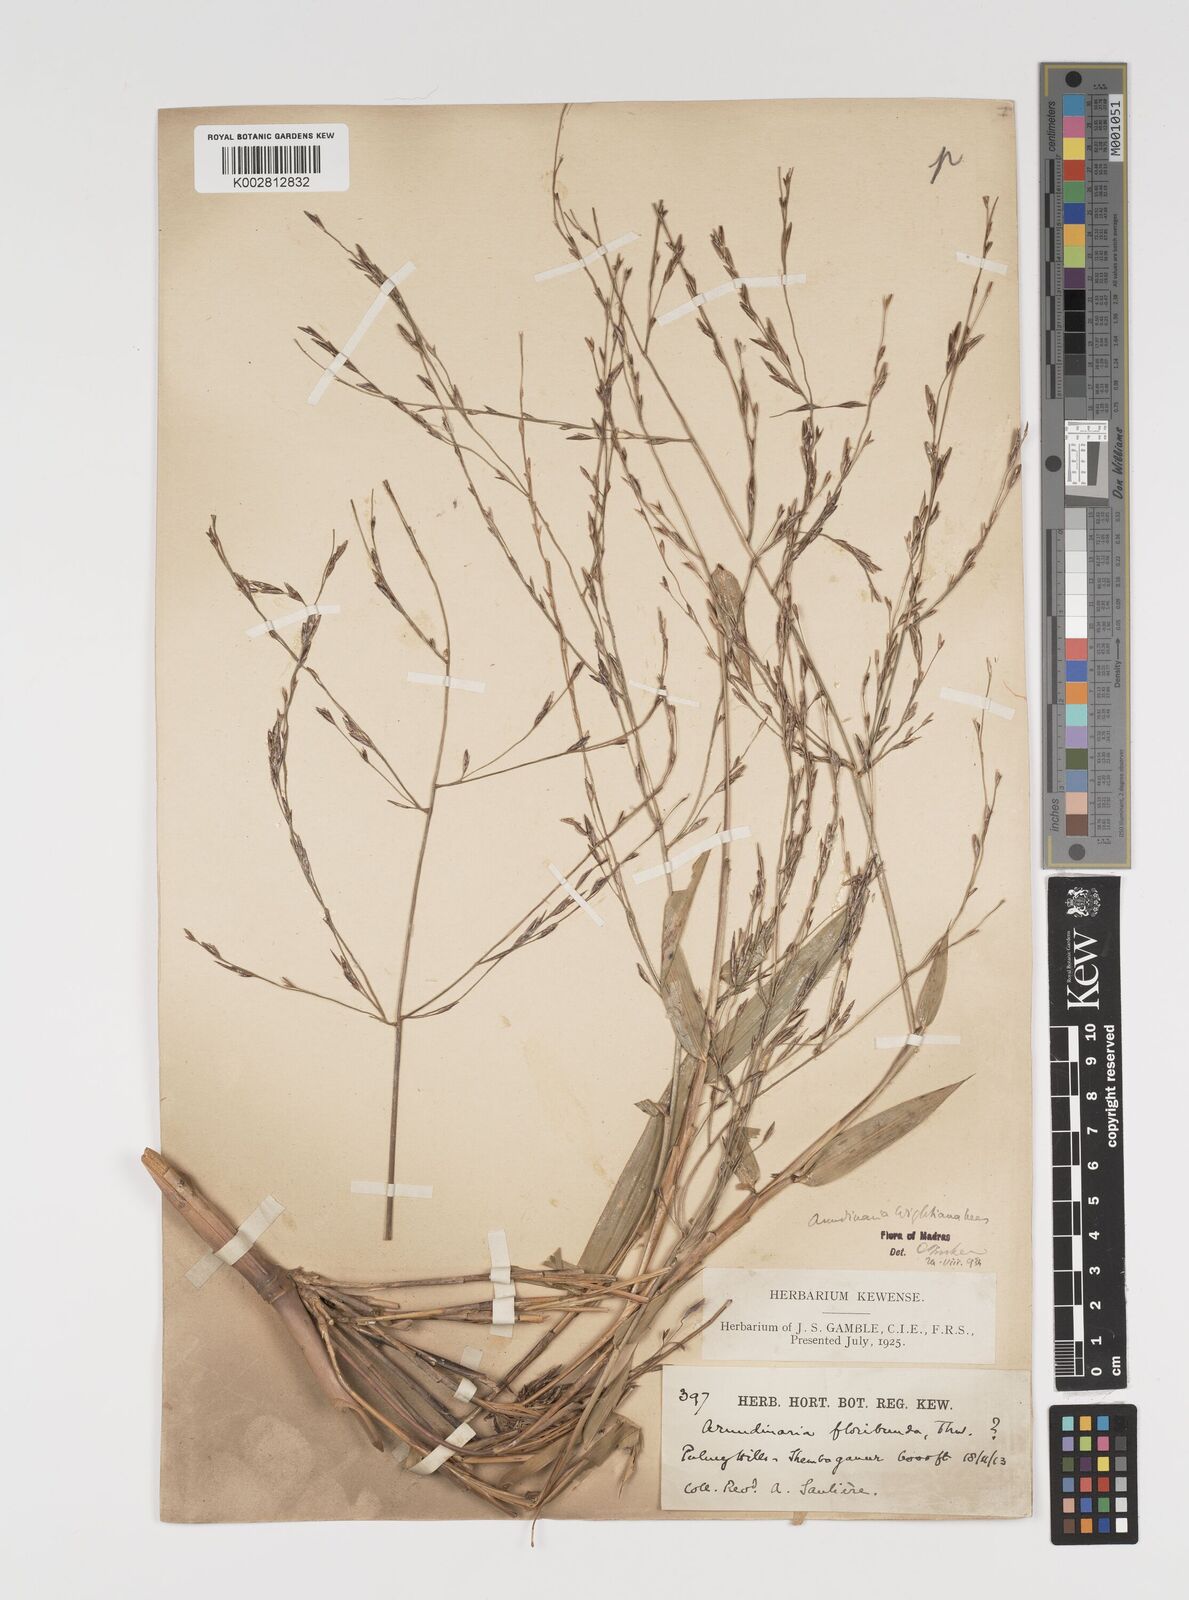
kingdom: Plantae
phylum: Tracheophyta
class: Liliopsida
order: Poales
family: Poaceae
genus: Kuruna
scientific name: Kuruna walkeriana
